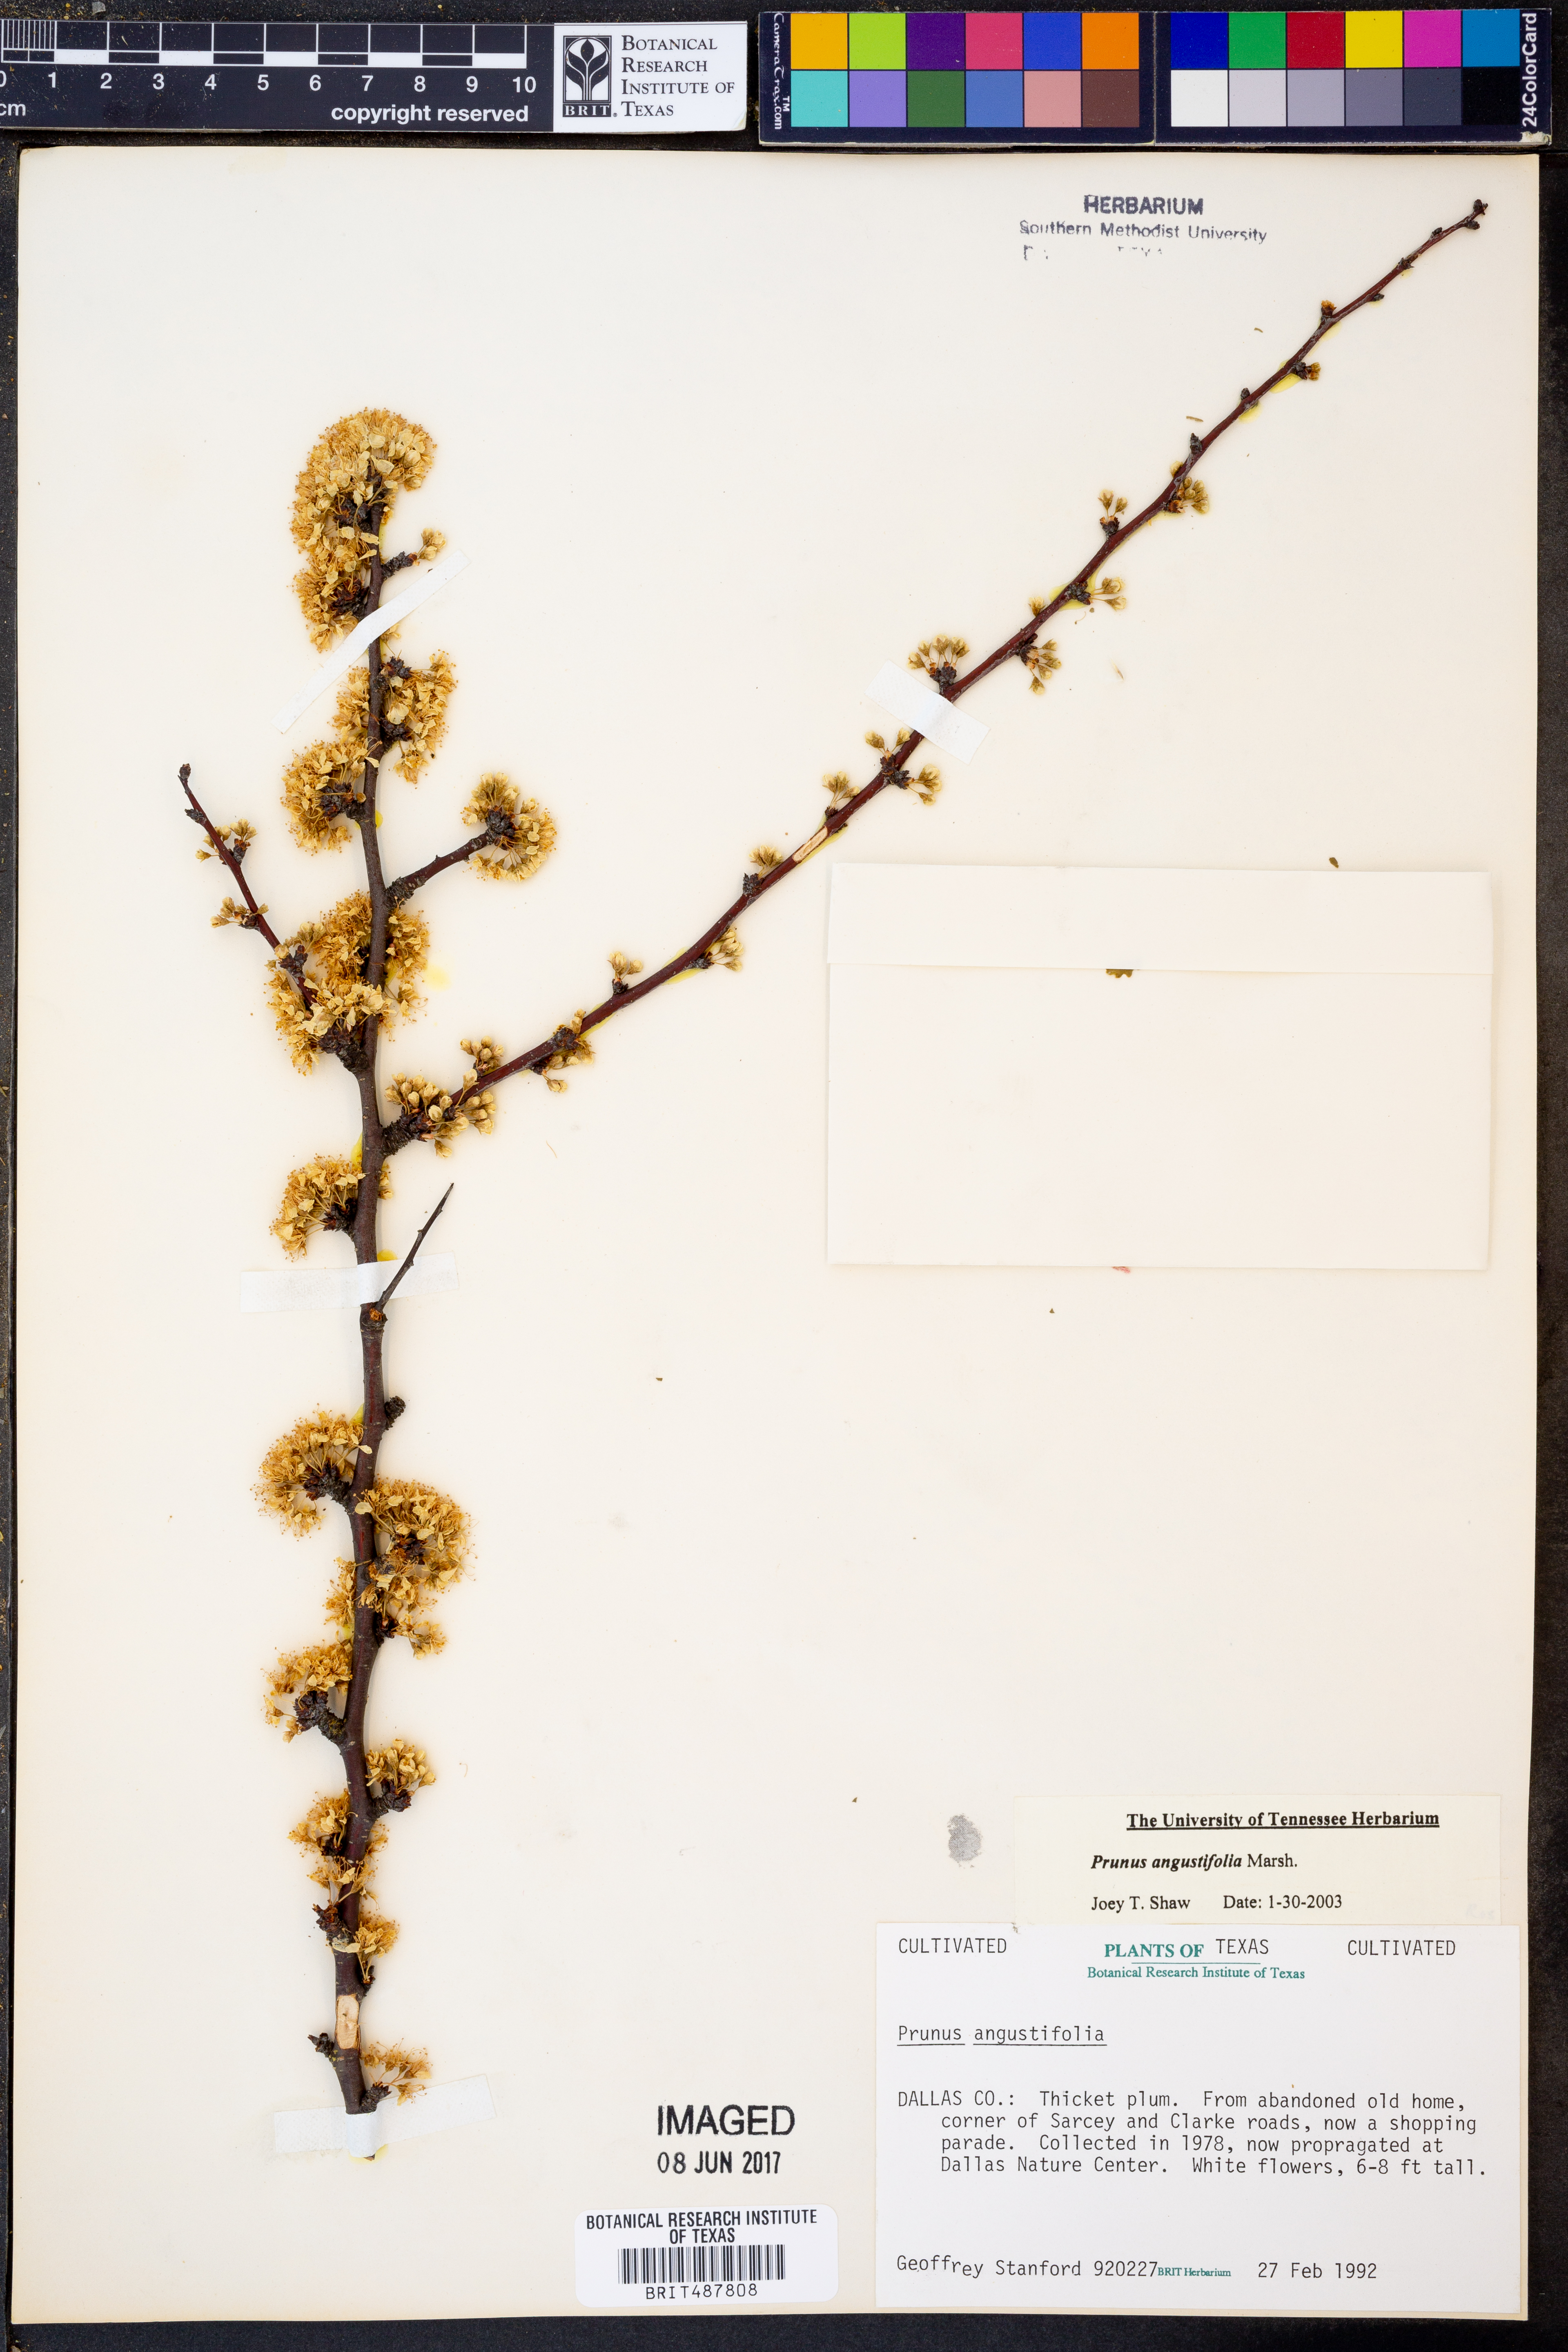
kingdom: Plantae
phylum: Tracheophyta
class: Magnoliopsida
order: Rosales
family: Rosaceae
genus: Prunus
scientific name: Prunus angustifolia
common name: Cherokee plum
